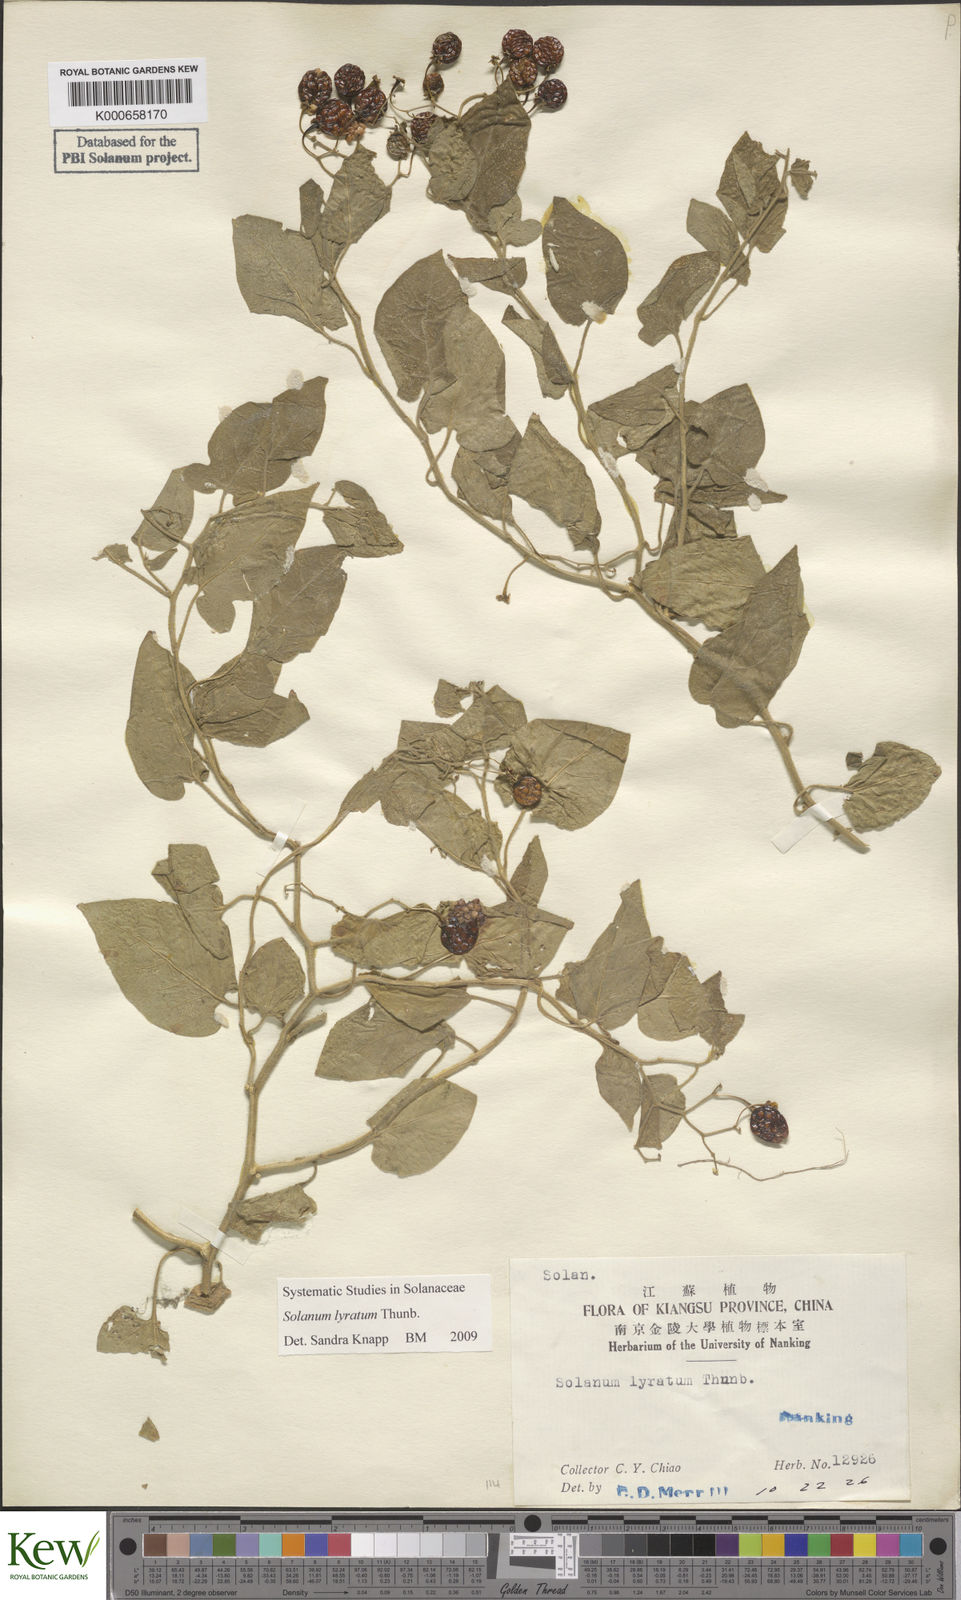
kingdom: Plantae
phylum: Tracheophyta
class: Magnoliopsida
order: Solanales
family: Solanaceae
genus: Solanum
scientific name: Solanum lyratum
